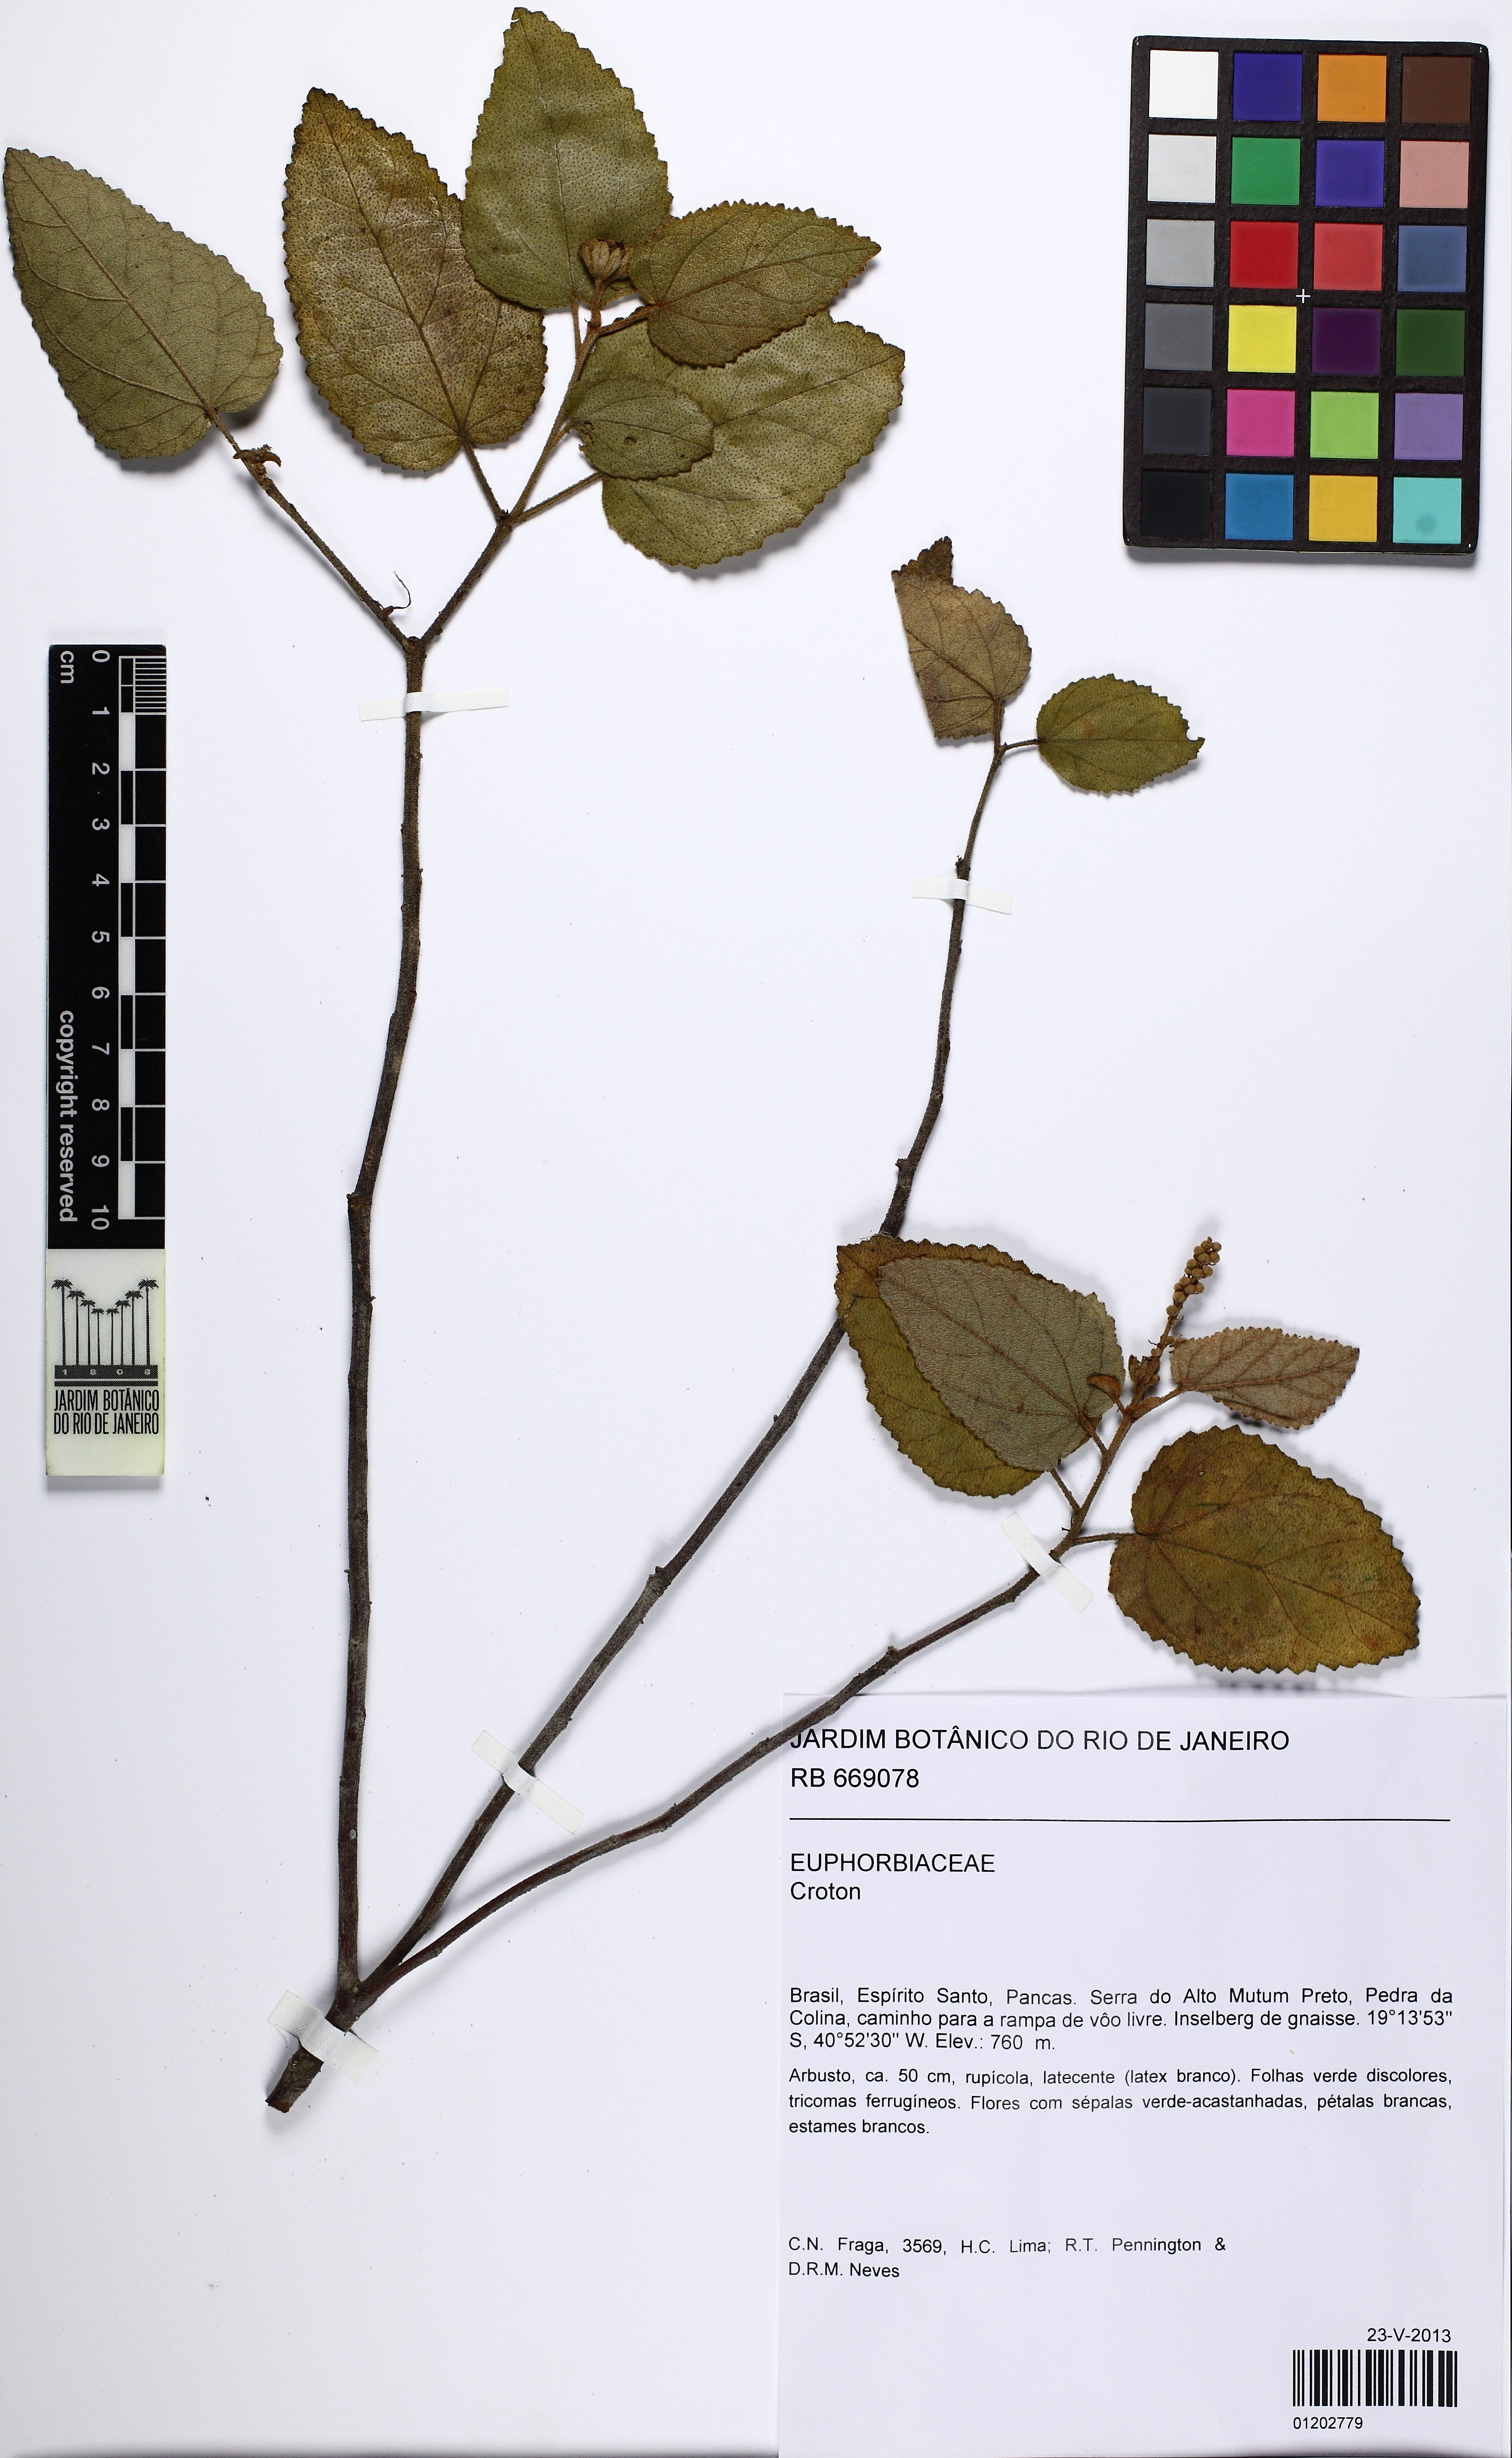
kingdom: Plantae
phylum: Tracheophyta
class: Magnoliopsida
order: Malpighiales
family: Euphorbiaceae
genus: Croton
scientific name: Croton
